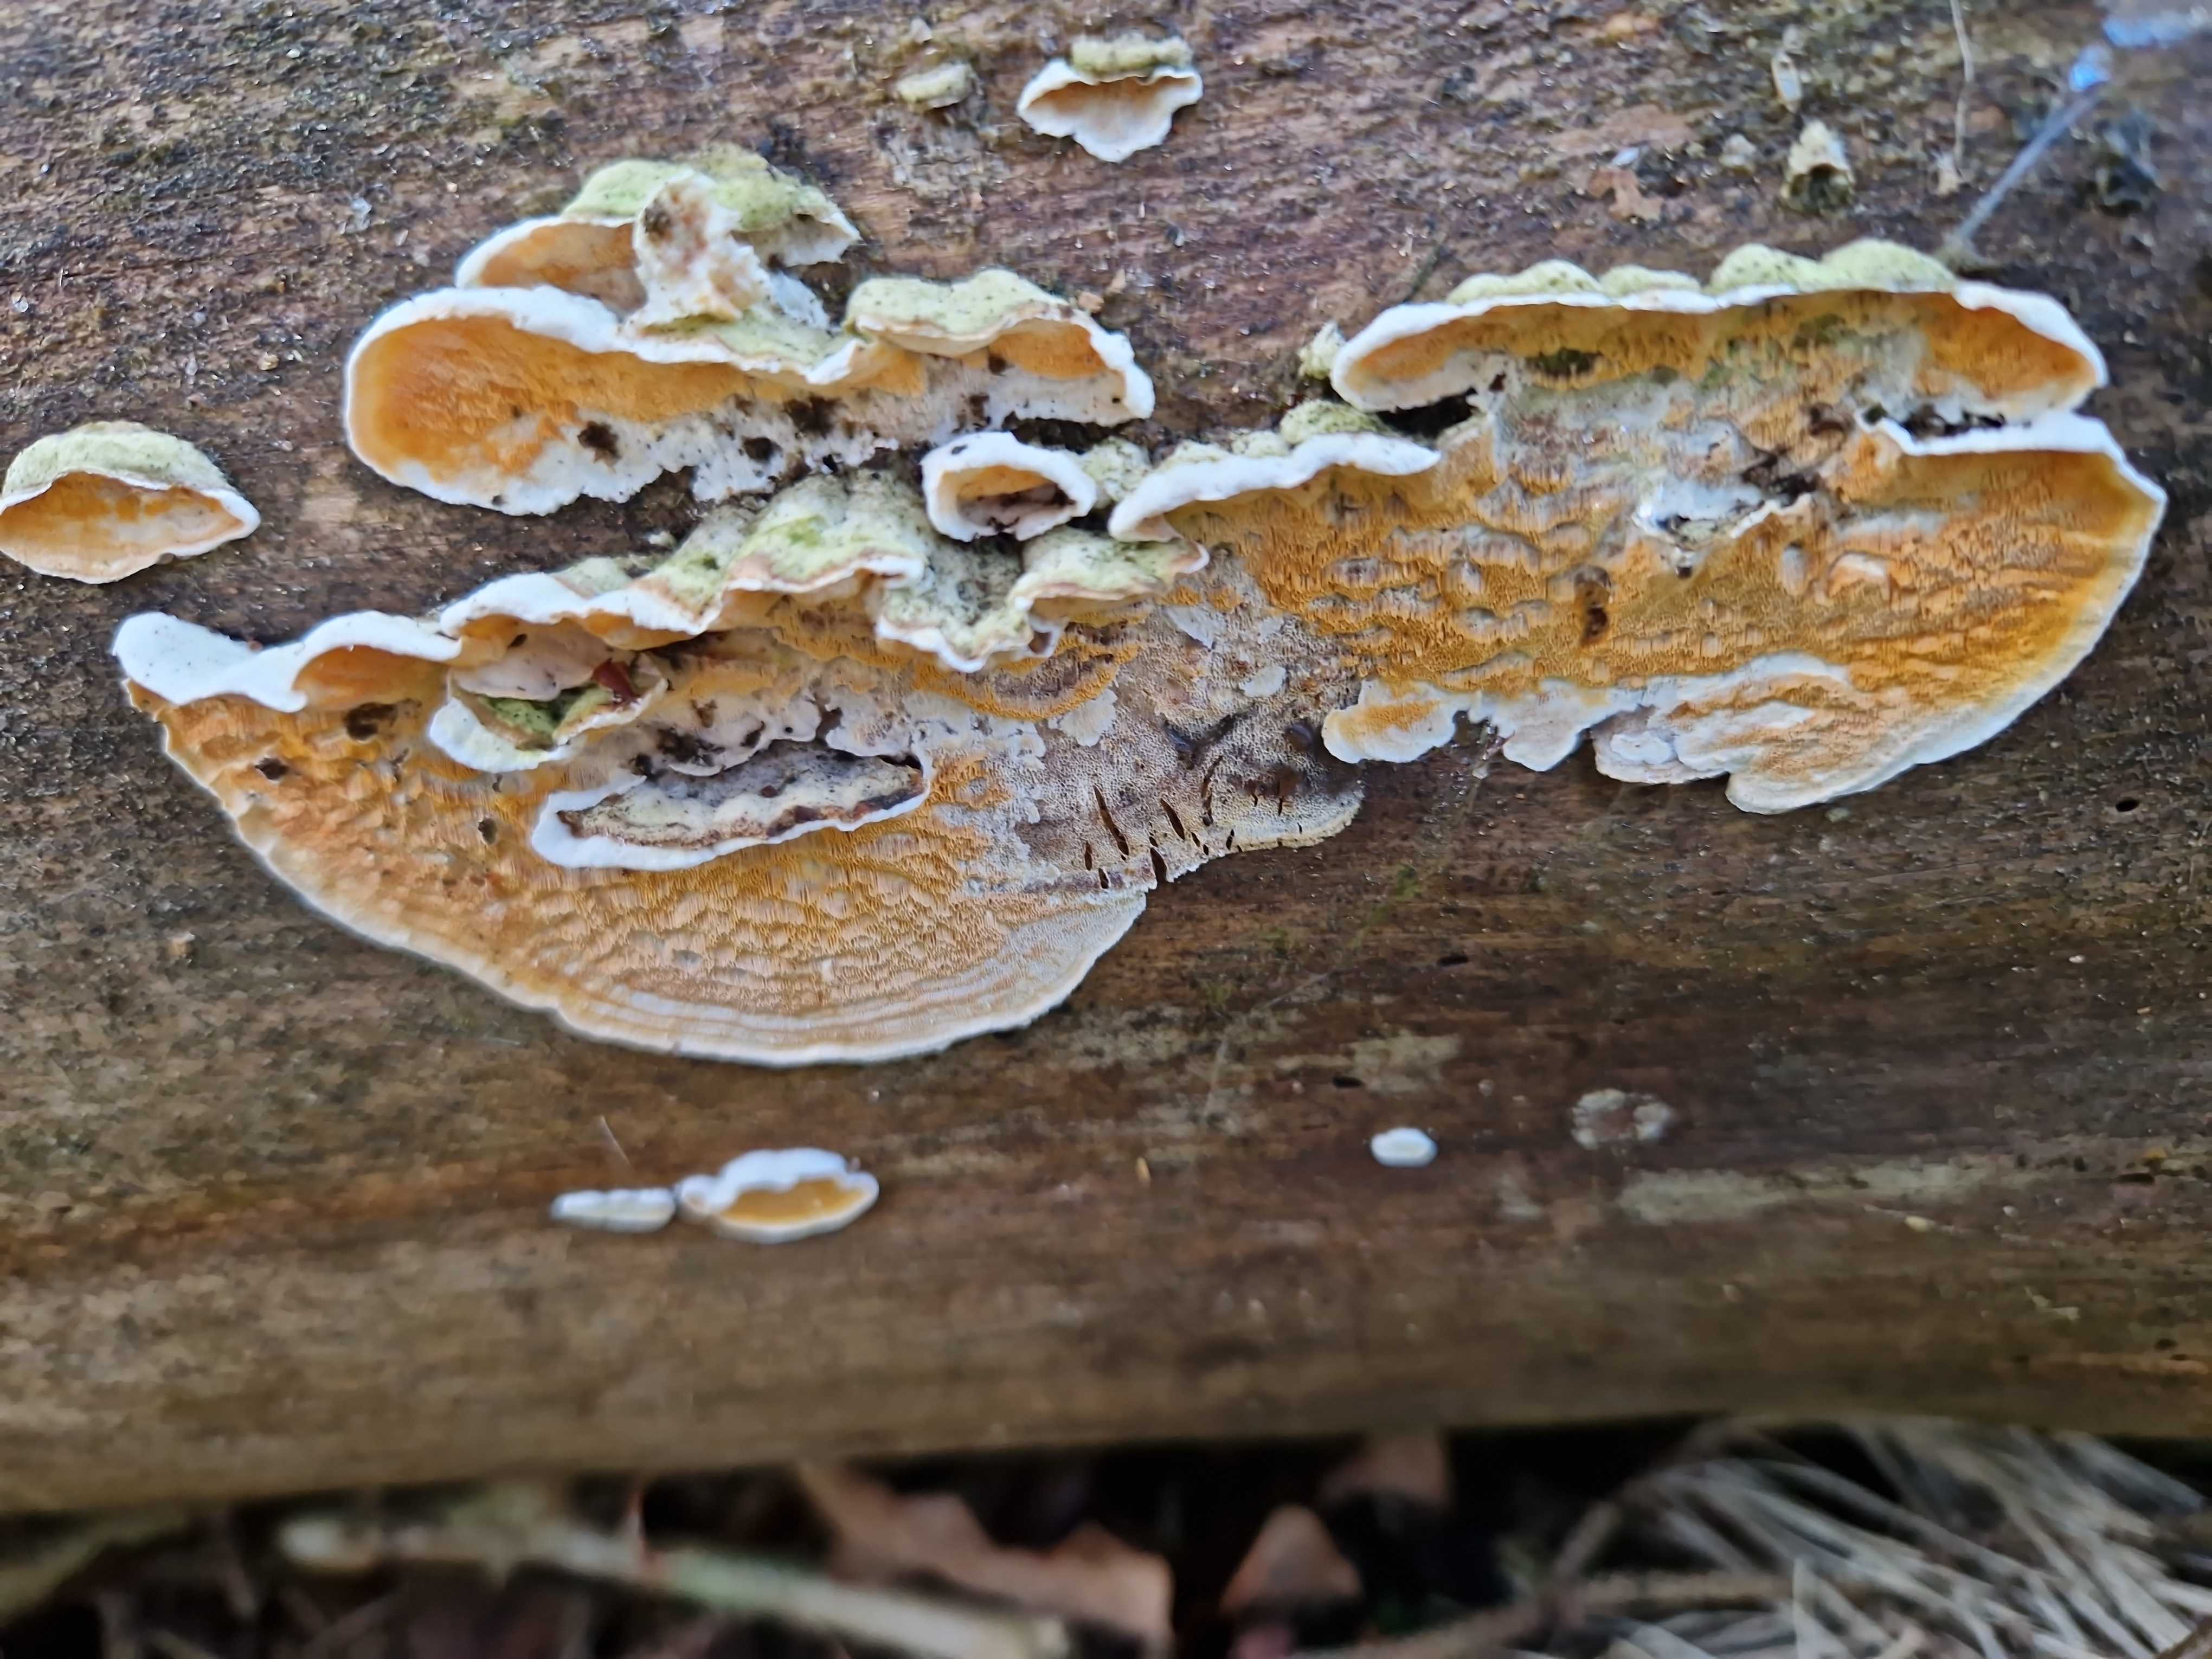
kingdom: Fungi
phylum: Basidiomycota
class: Agaricomycetes
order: Polyporales
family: Incrustoporiaceae
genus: Skeletocutis
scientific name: Skeletocutis amorpha
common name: orange krystalporesvamp
